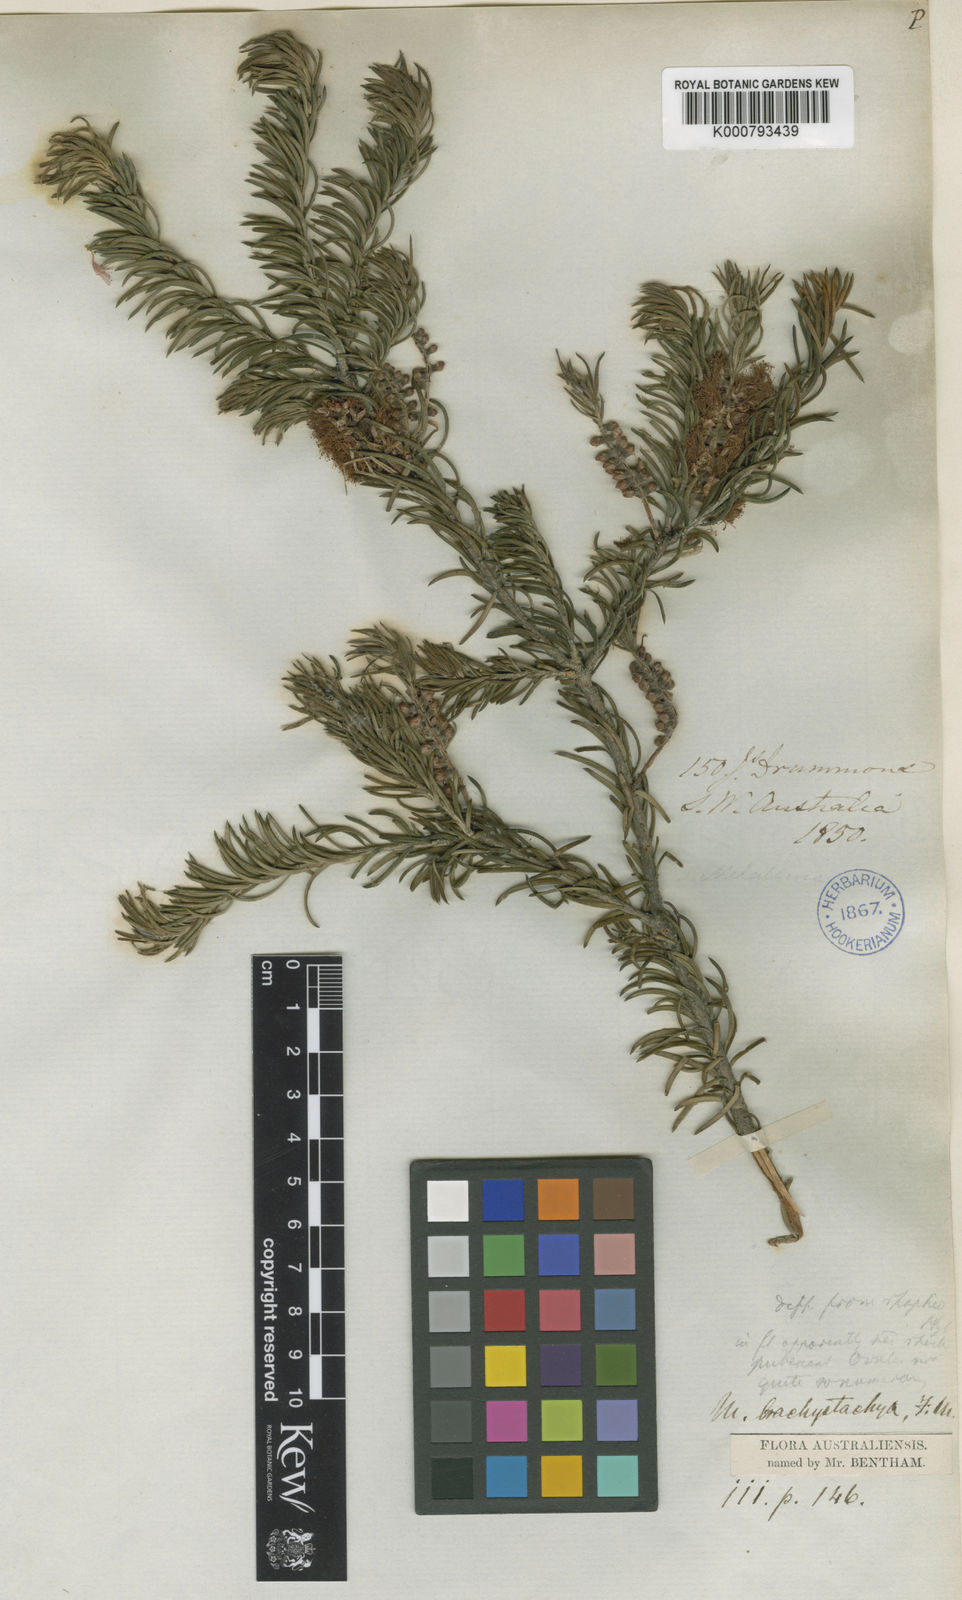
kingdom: Plantae
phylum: Tracheophyta
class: Magnoliopsida
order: Myrtales
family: Myrtaceae
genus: Melaleuca
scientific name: Melaleuca subfalcata
